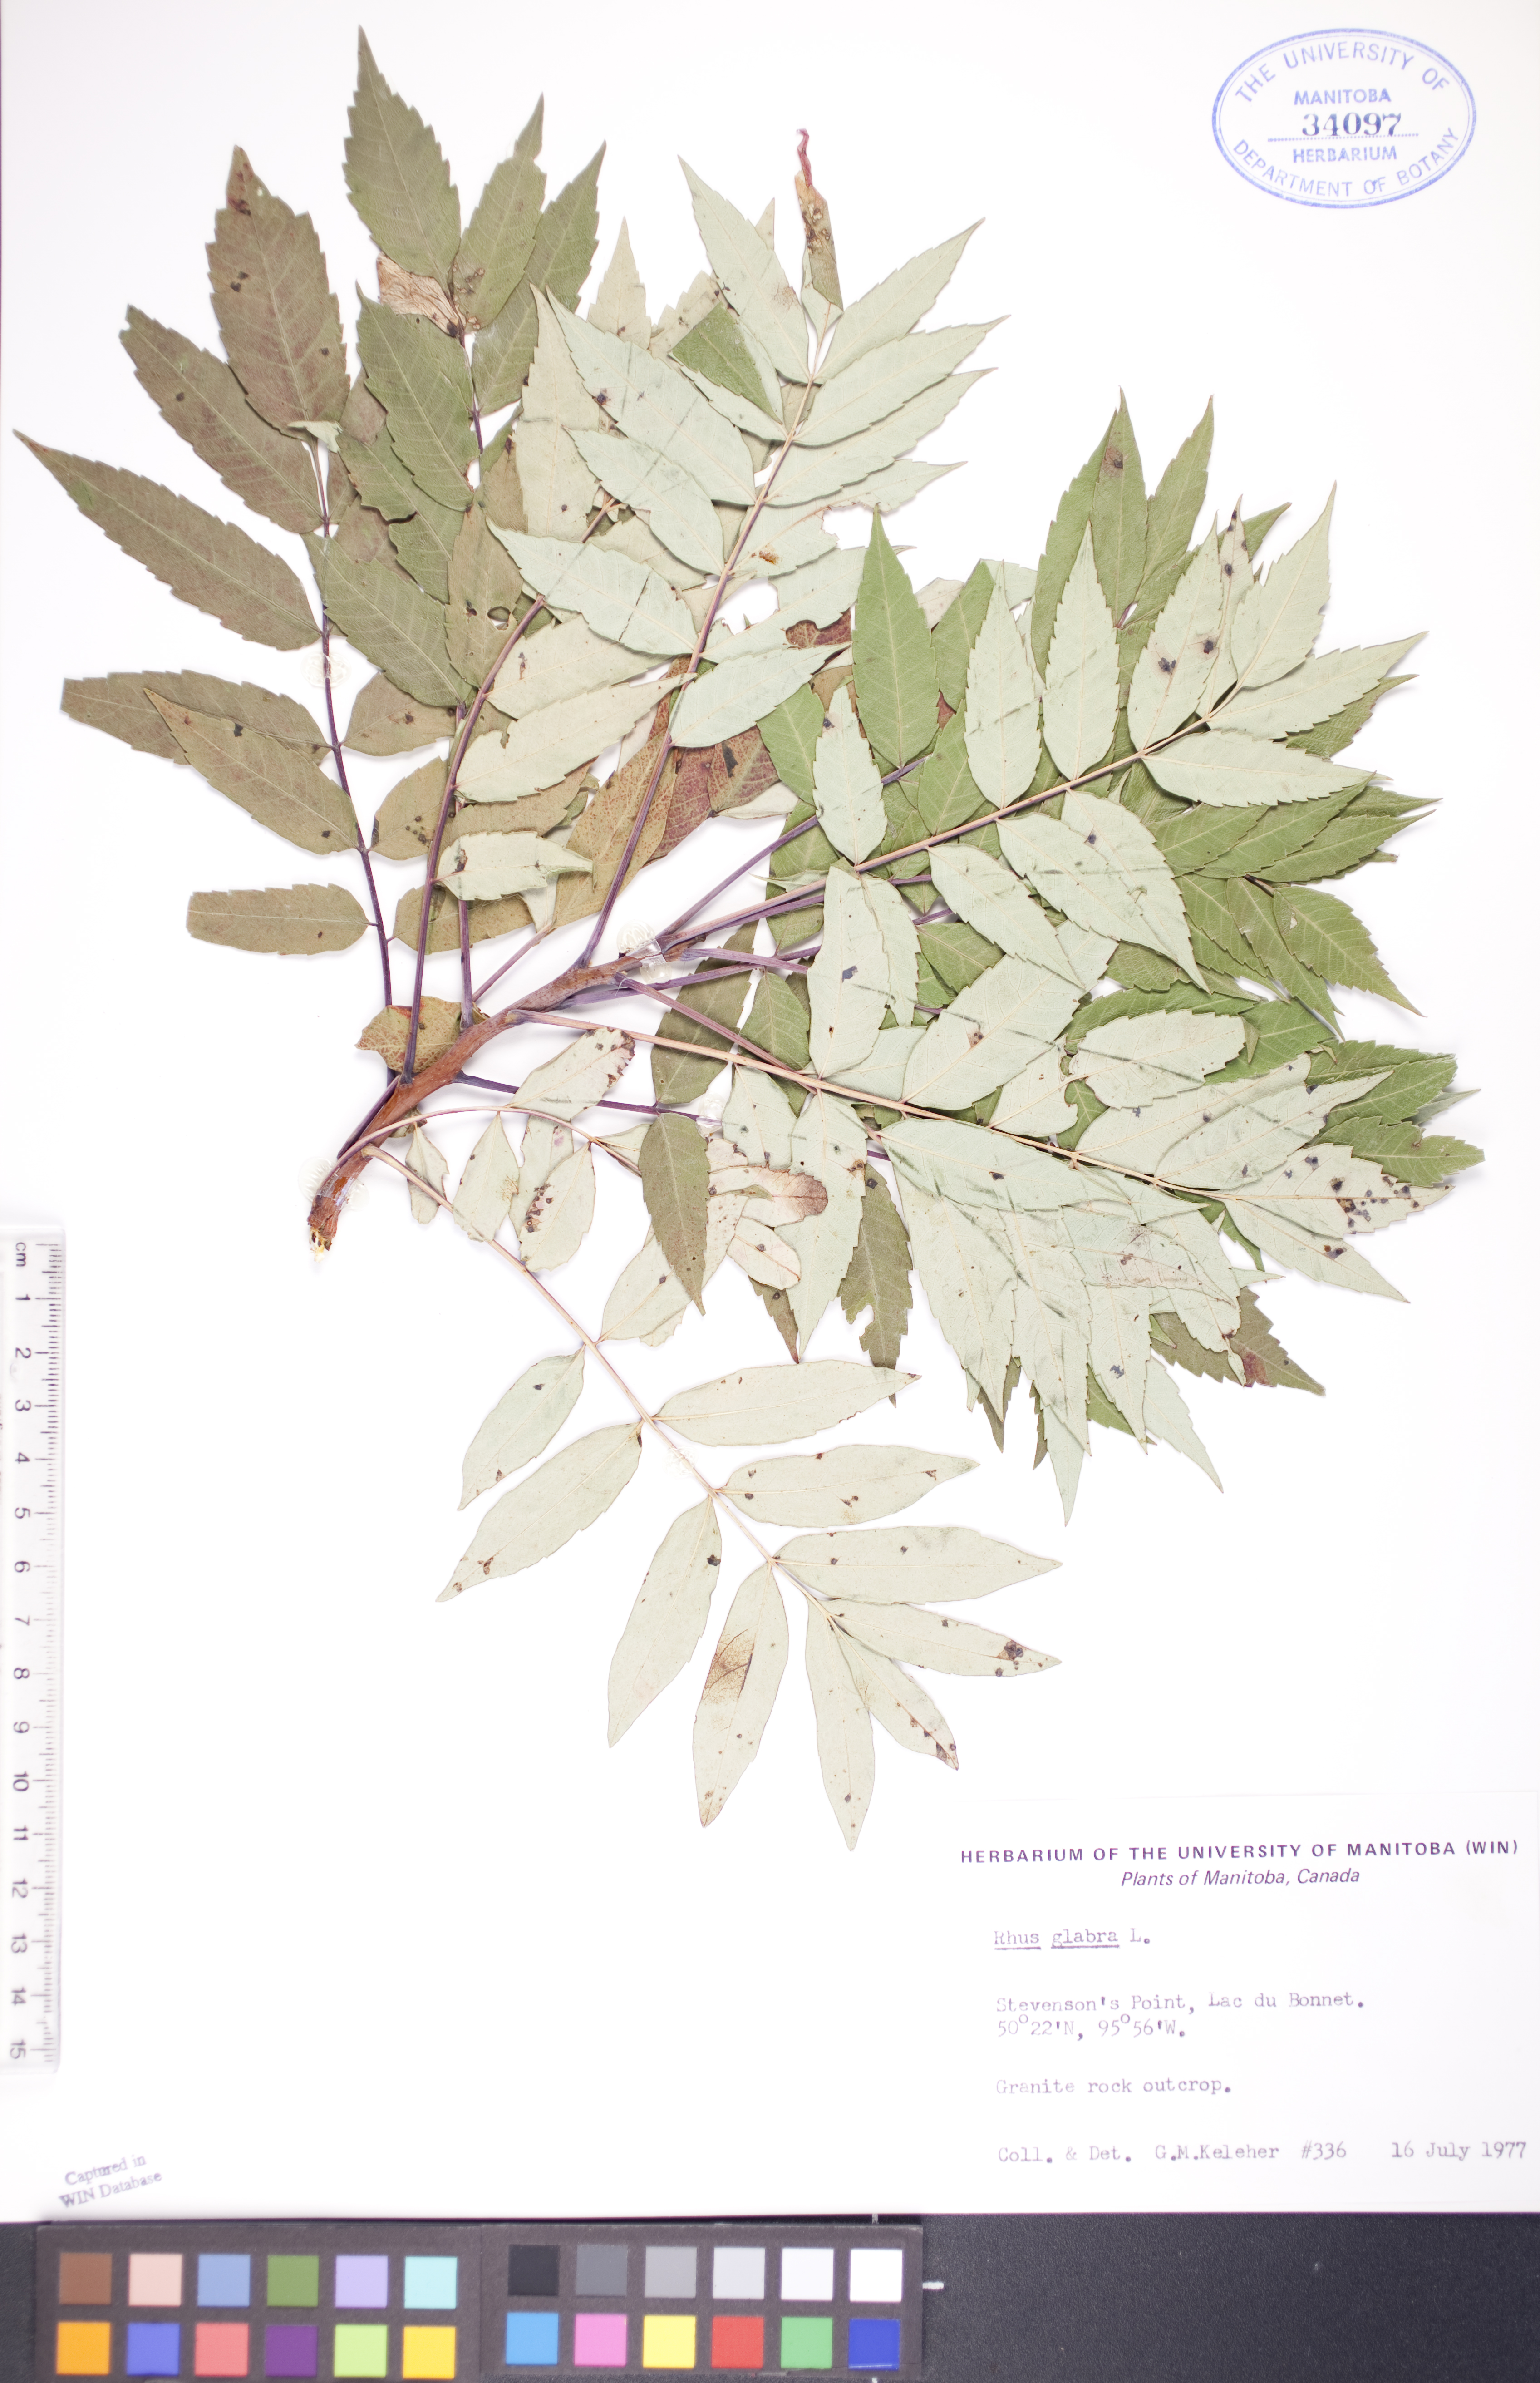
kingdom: Plantae
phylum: Tracheophyta
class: Magnoliopsida
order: Sapindales
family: Anacardiaceae
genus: Rhus
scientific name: Rhus glabra
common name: Scarlet sumac
